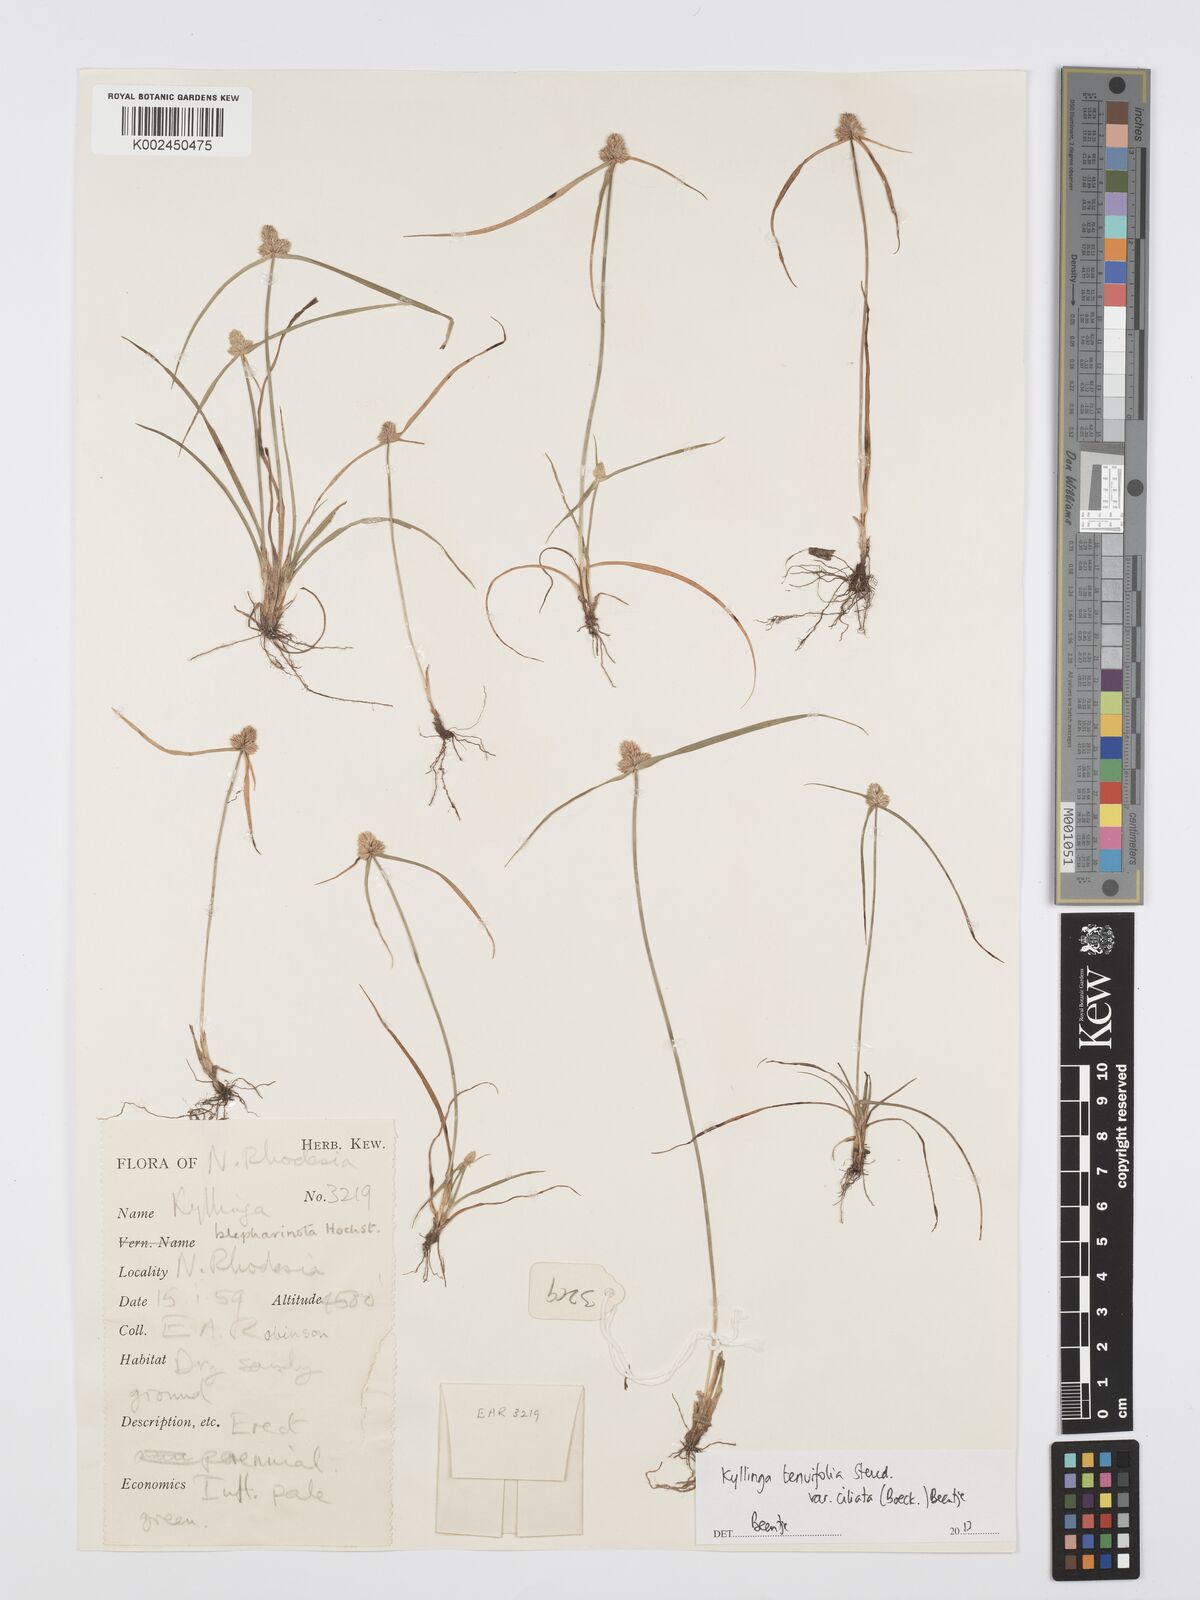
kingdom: Plantae
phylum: Tracheophyta
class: Liliopsida
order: Poales
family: Cyperaceae
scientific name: Cyperaceae
